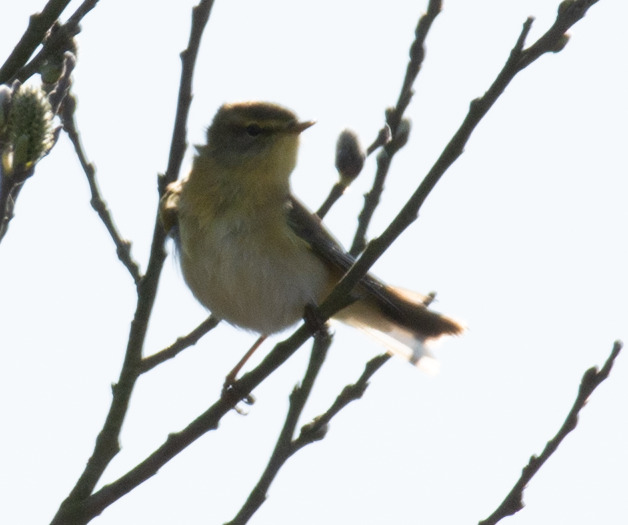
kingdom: Animalia
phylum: Chordata
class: Aves
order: Passeriformes
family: Phylloscopidae
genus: Phylloscopus
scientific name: Phylloscopus trochilus
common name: Løvsanger
